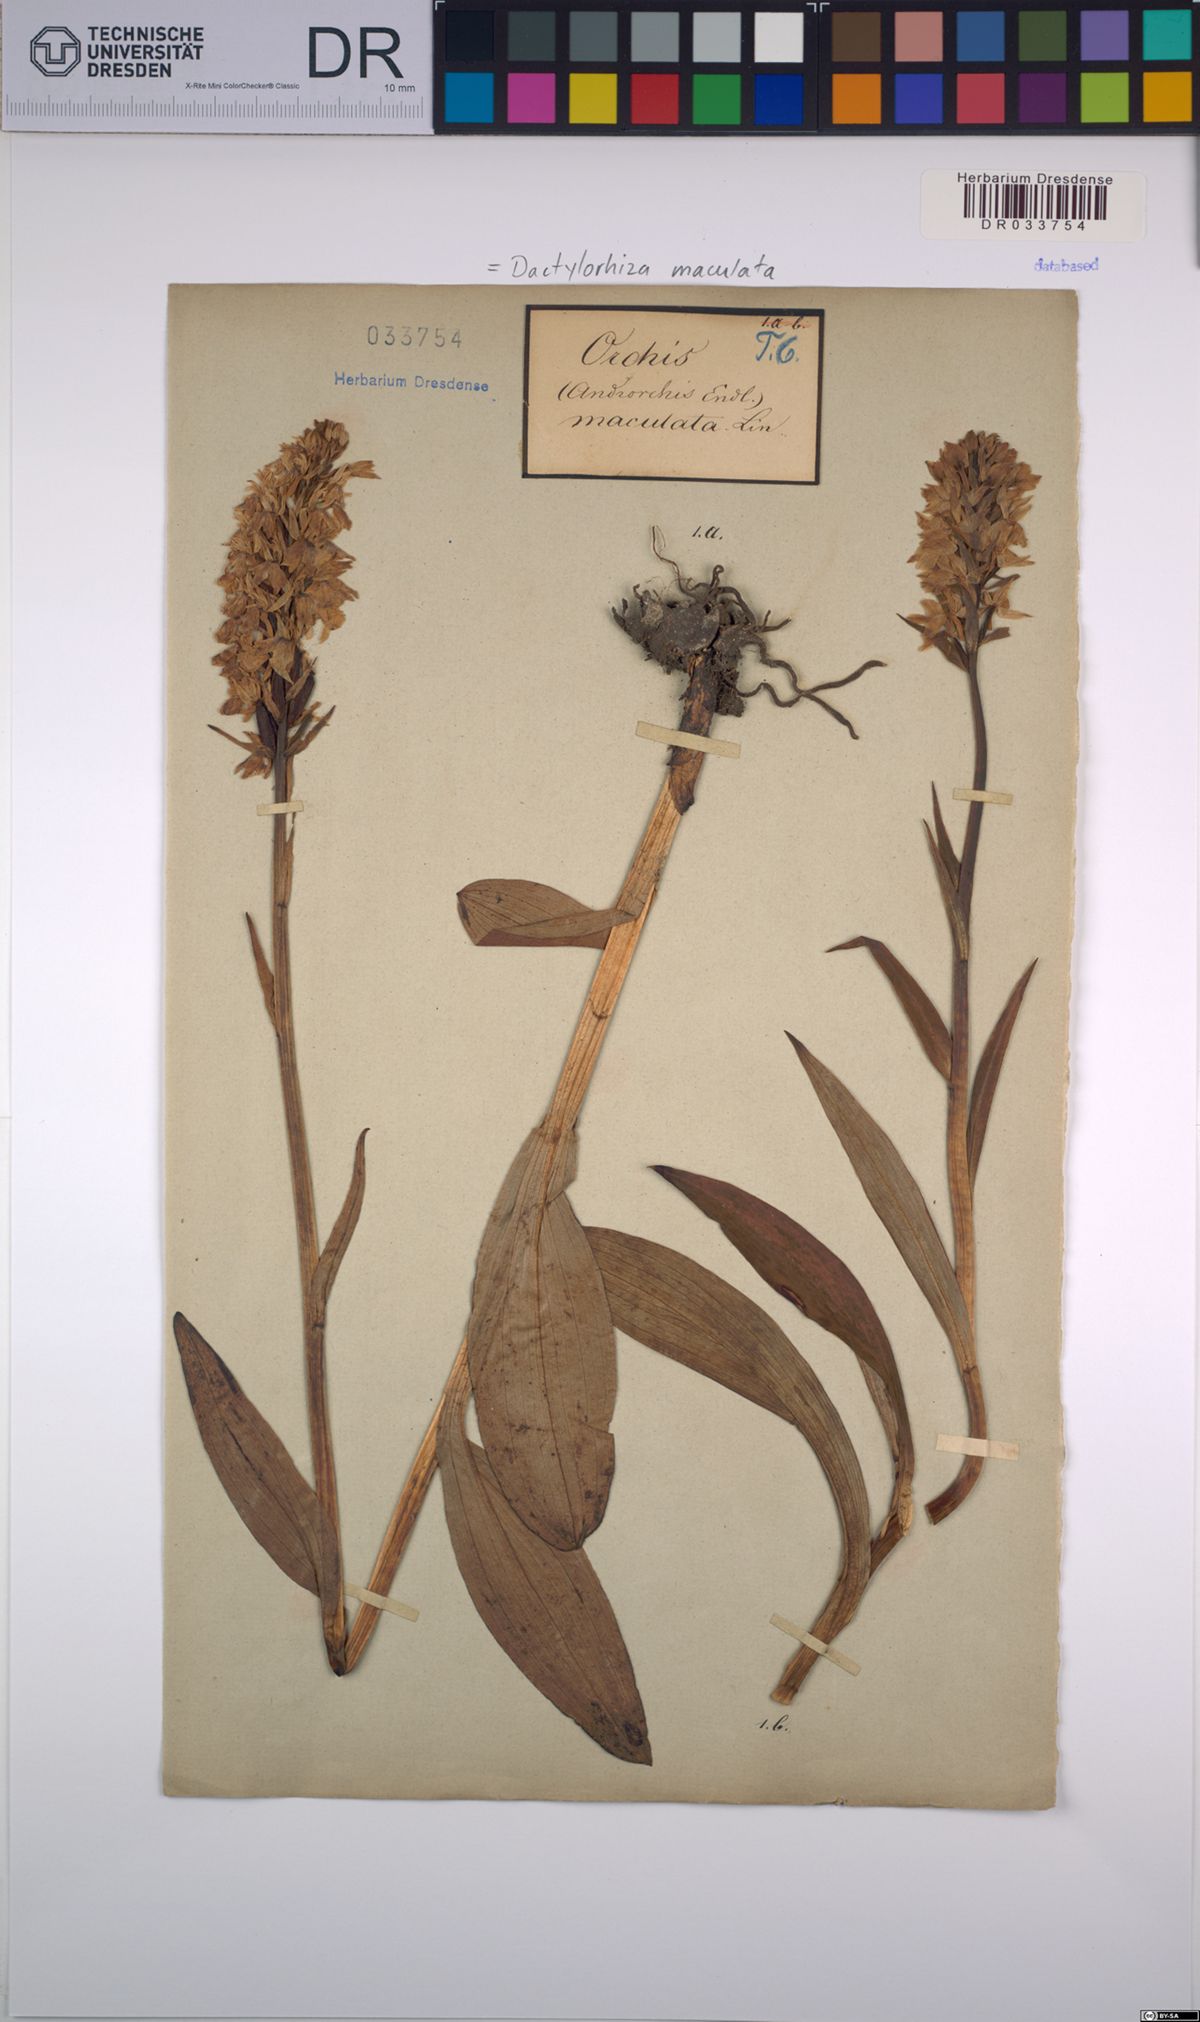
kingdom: Plantae
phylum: Tracheophyta
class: Liliopsida
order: Asparagales
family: Orchidaceae
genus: Dactylorhiza
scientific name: Dactylorhiza maculata
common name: Heath spotted-orchid
